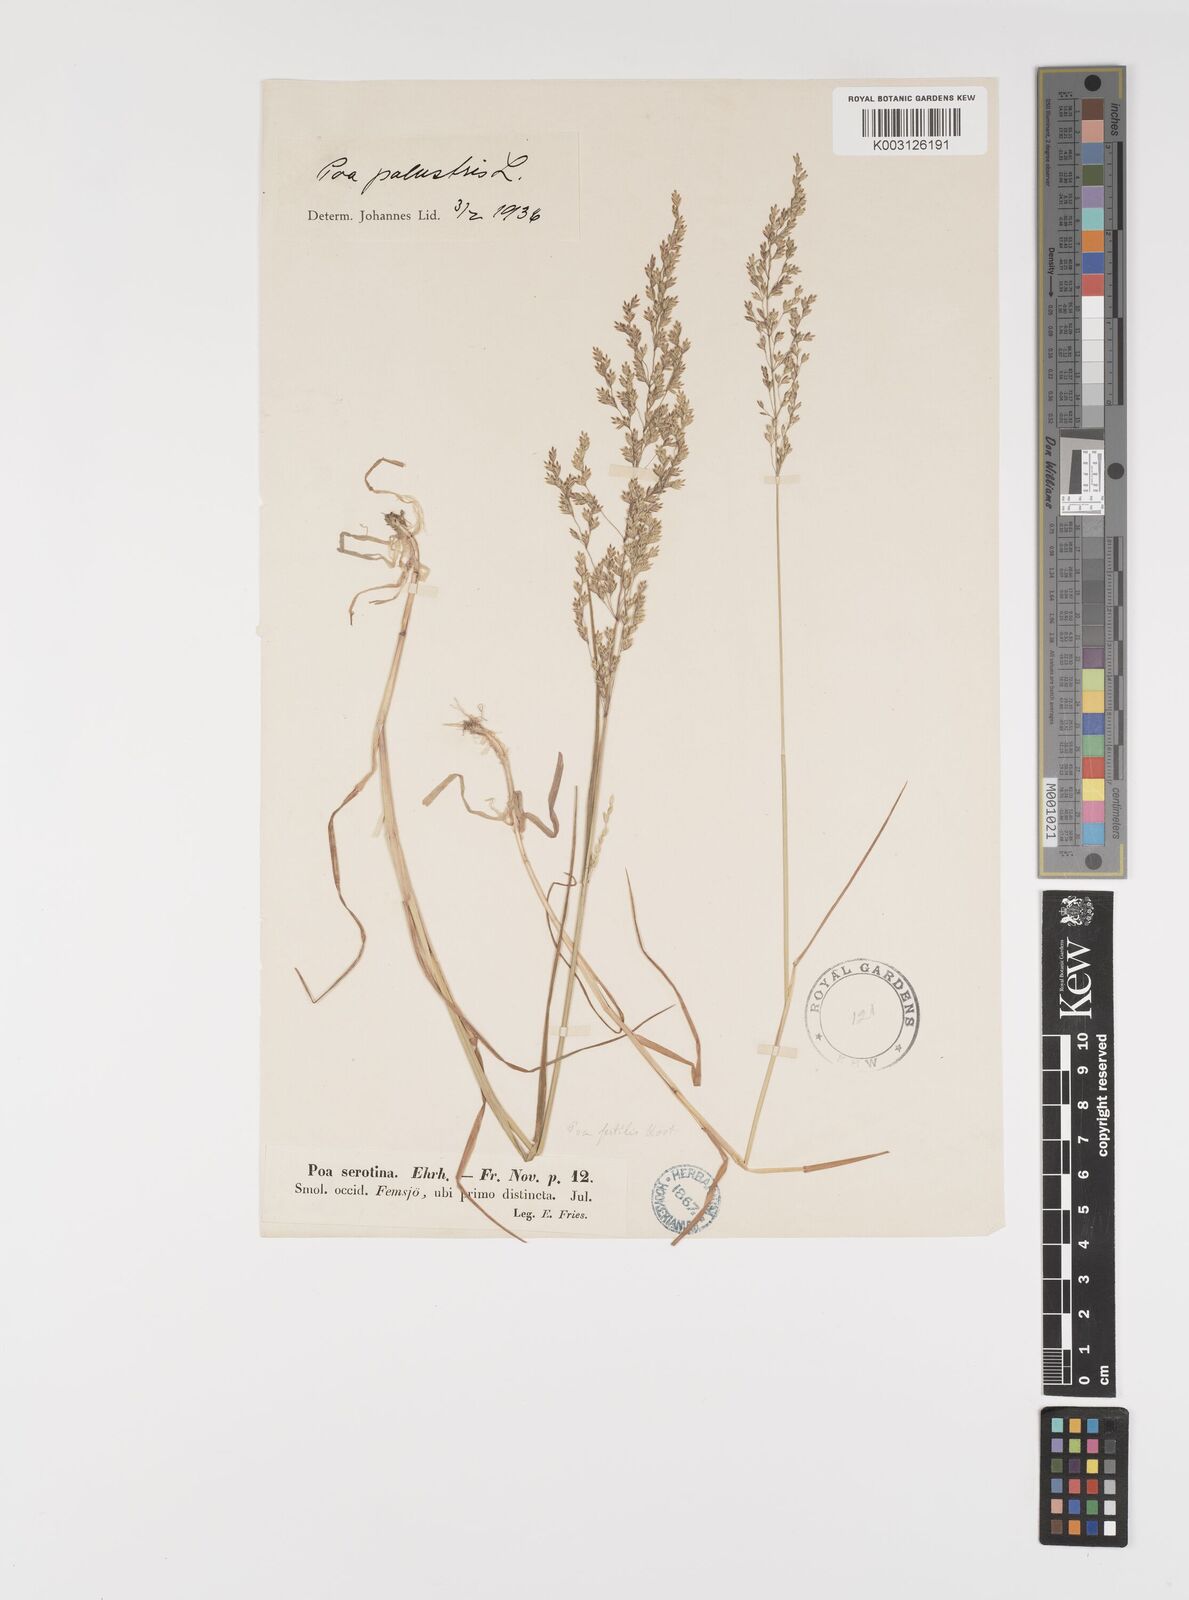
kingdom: Plantae
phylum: Tracheophyta
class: Liliopsida
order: Poales
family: Poaceae
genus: Poa
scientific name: Poa palustris
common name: Swamp meadow-grass
